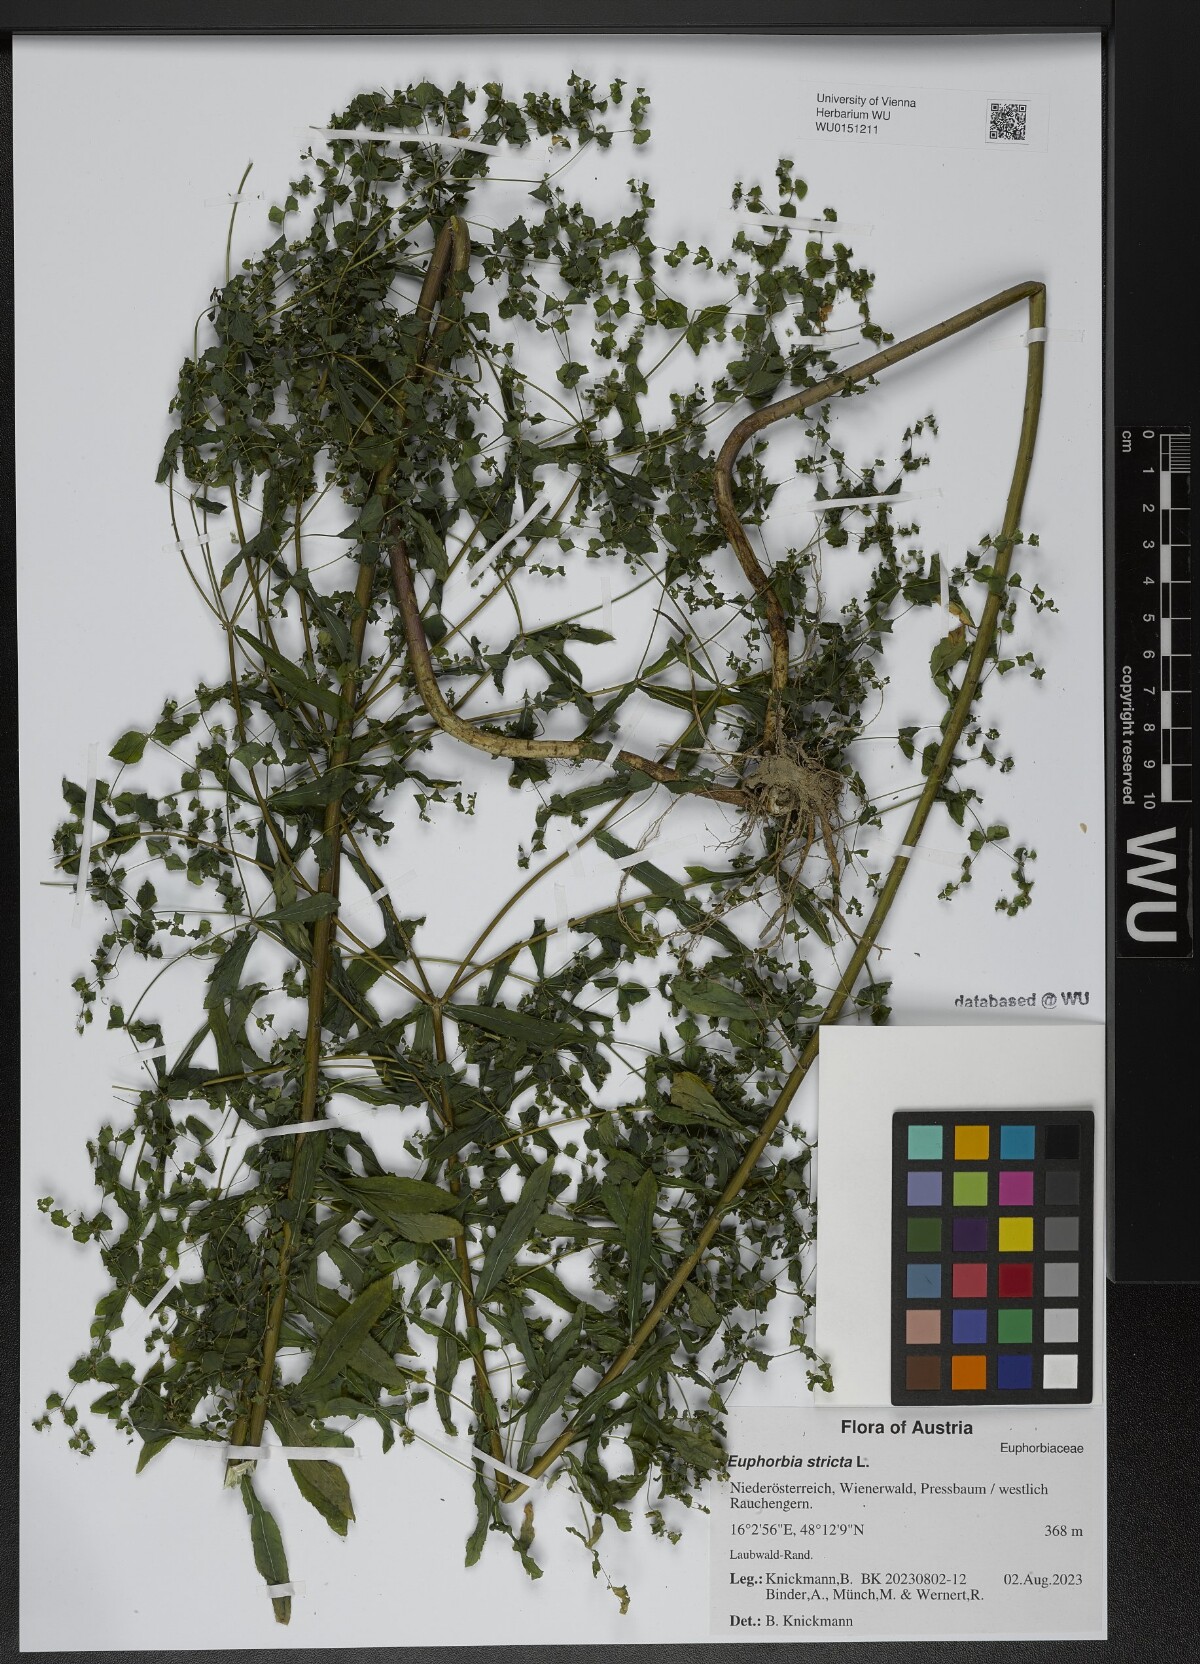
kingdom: Plantae
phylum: Tracheophyta
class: Magnoliopsida
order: Malpighiales
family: Euphorbiaceae
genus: Euphorbia
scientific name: Euphorbia stricta
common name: Upright spurge
